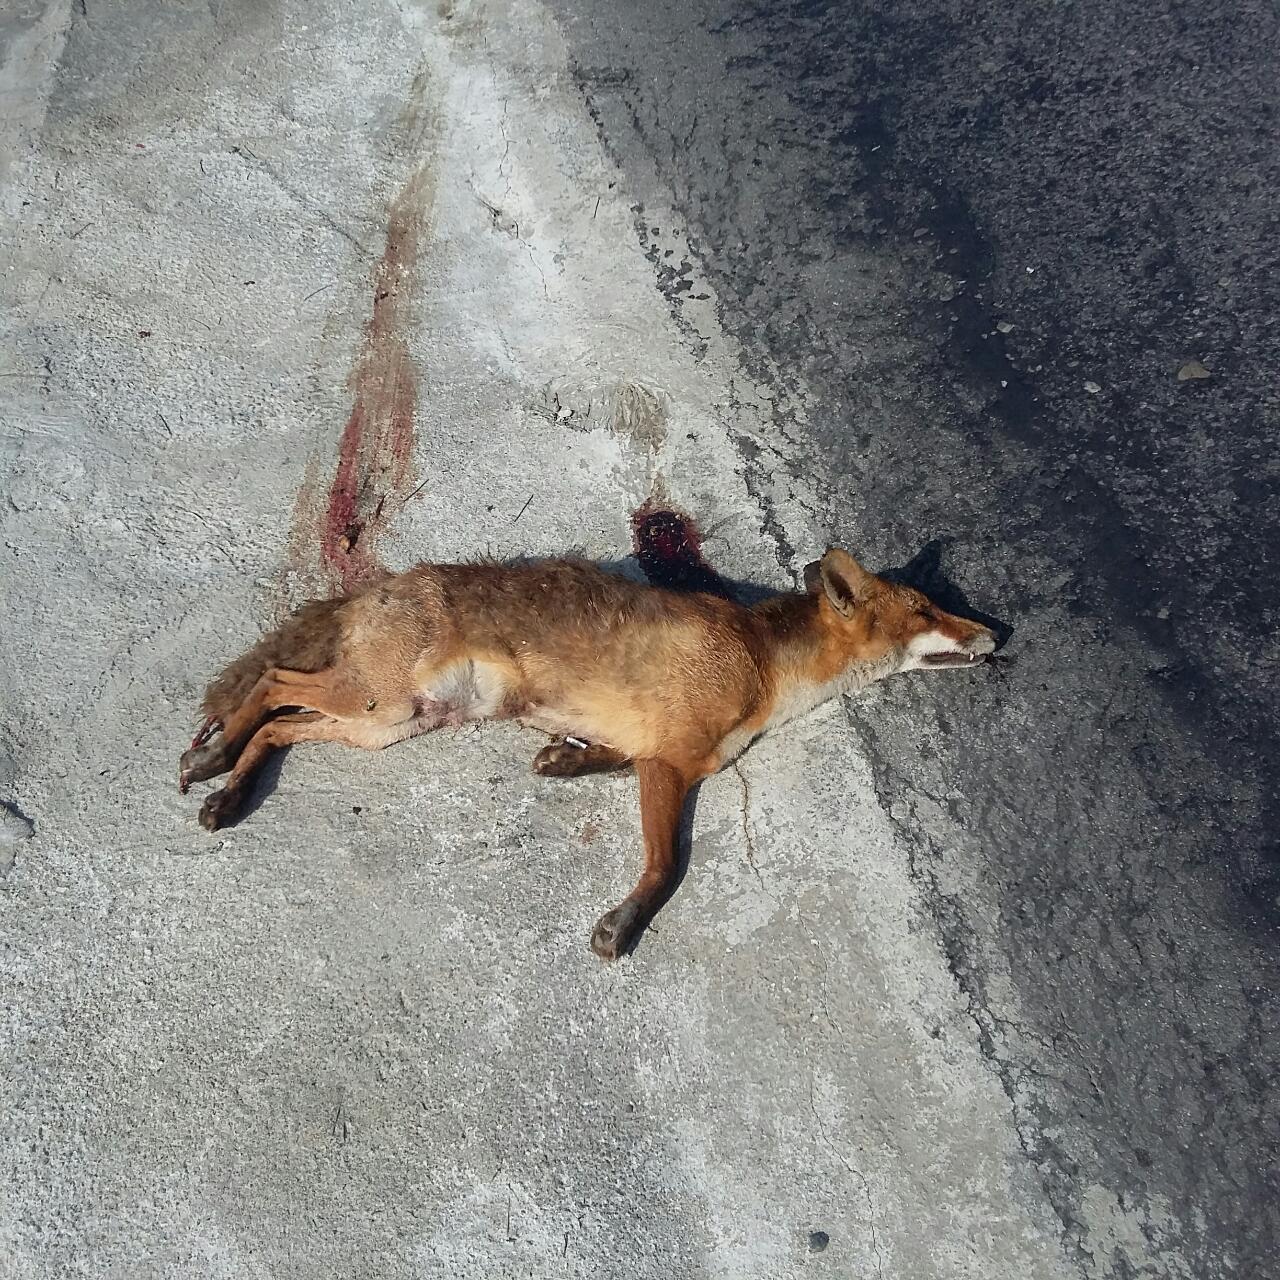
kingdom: Animalia
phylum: Chordata
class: Mammalia
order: Carnivora
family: Canidae
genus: Vulpes
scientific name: Vulpes vulpes
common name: Red fox
